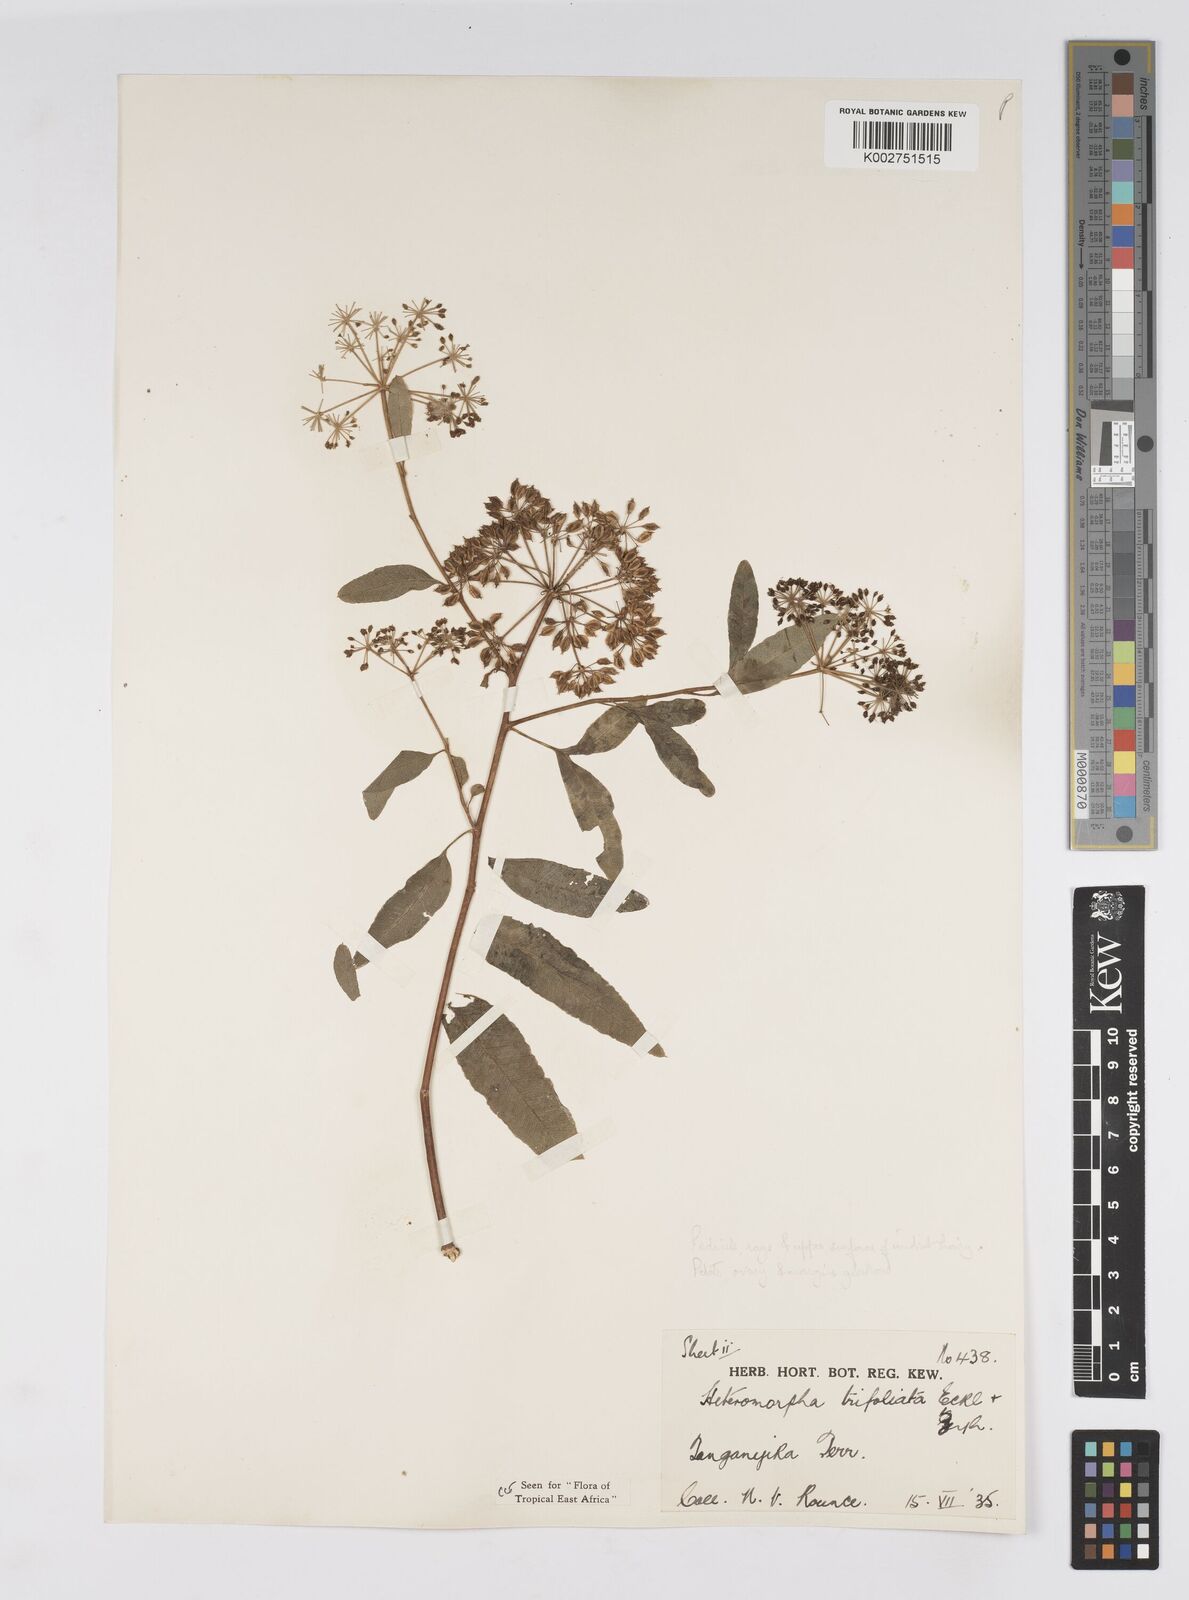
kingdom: Plantae
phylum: Tracheophyta
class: Magnoliopsida
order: Apiales
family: Apiaceae
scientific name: Apiaceae
